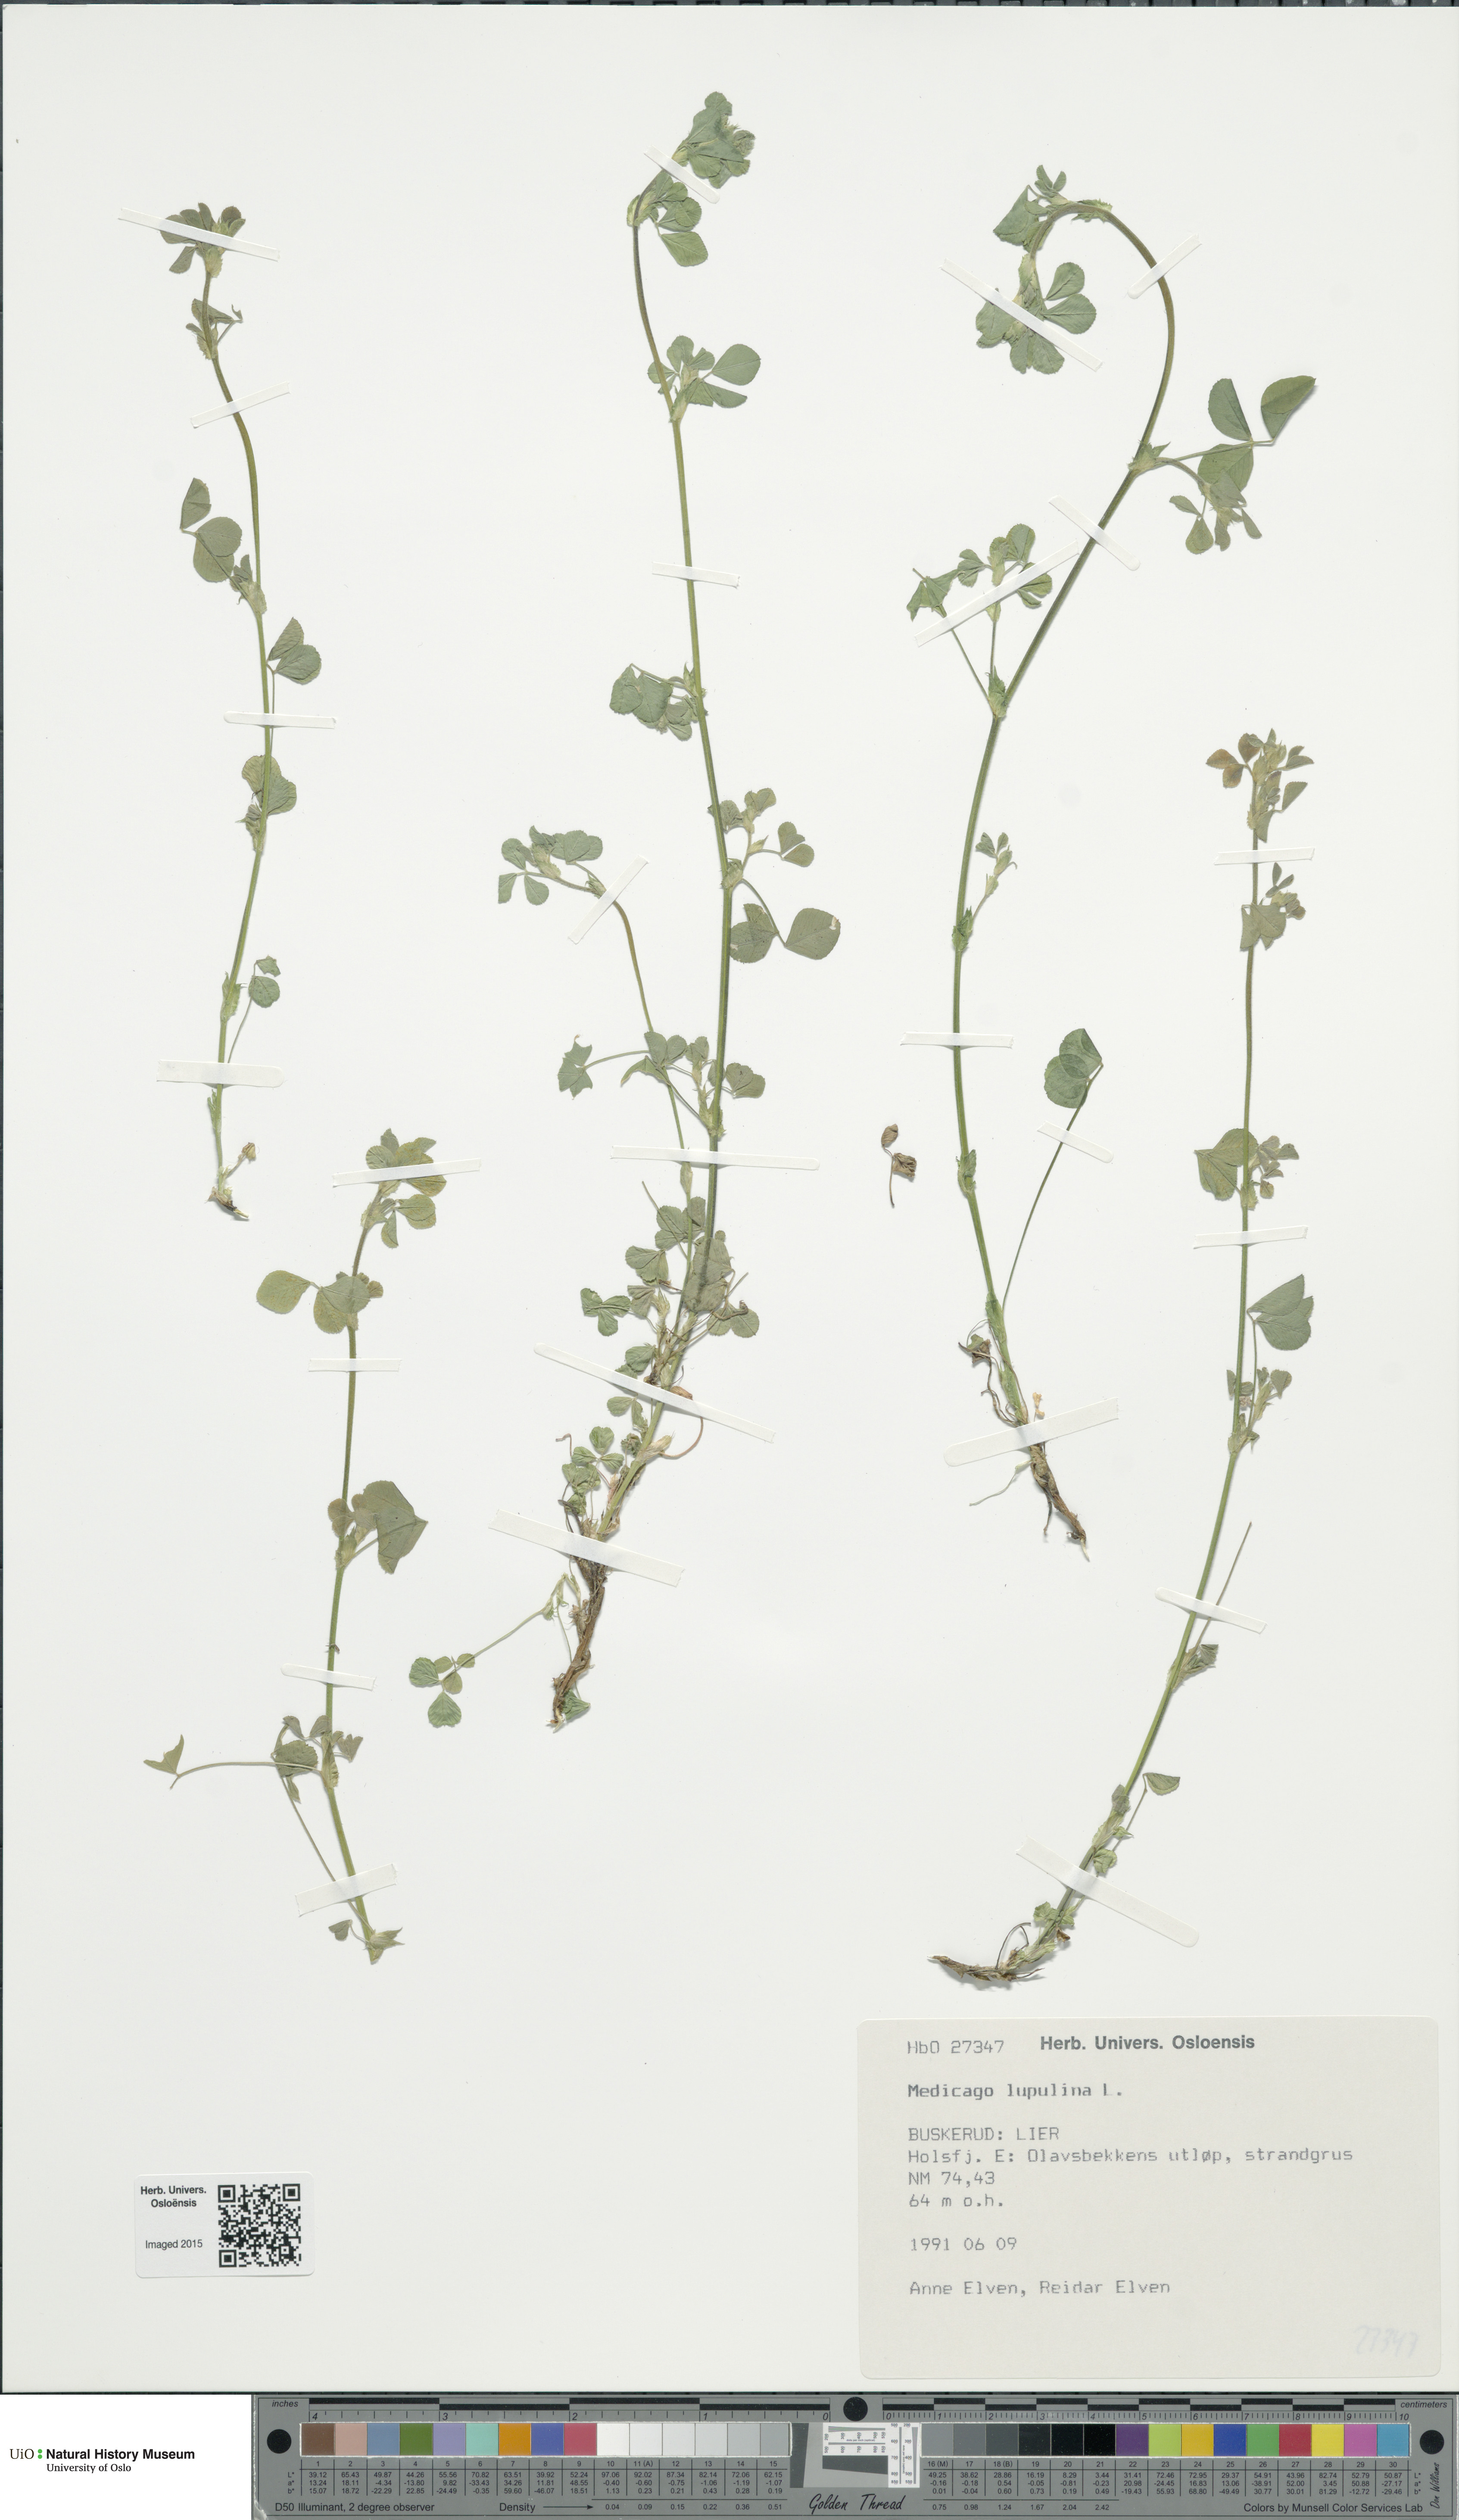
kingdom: Plantae
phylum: Tracheophyta
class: Magnoliopsida
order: Fabales
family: Fabaceae
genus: Medicago
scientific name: Medicago lupulina
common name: Black medick
